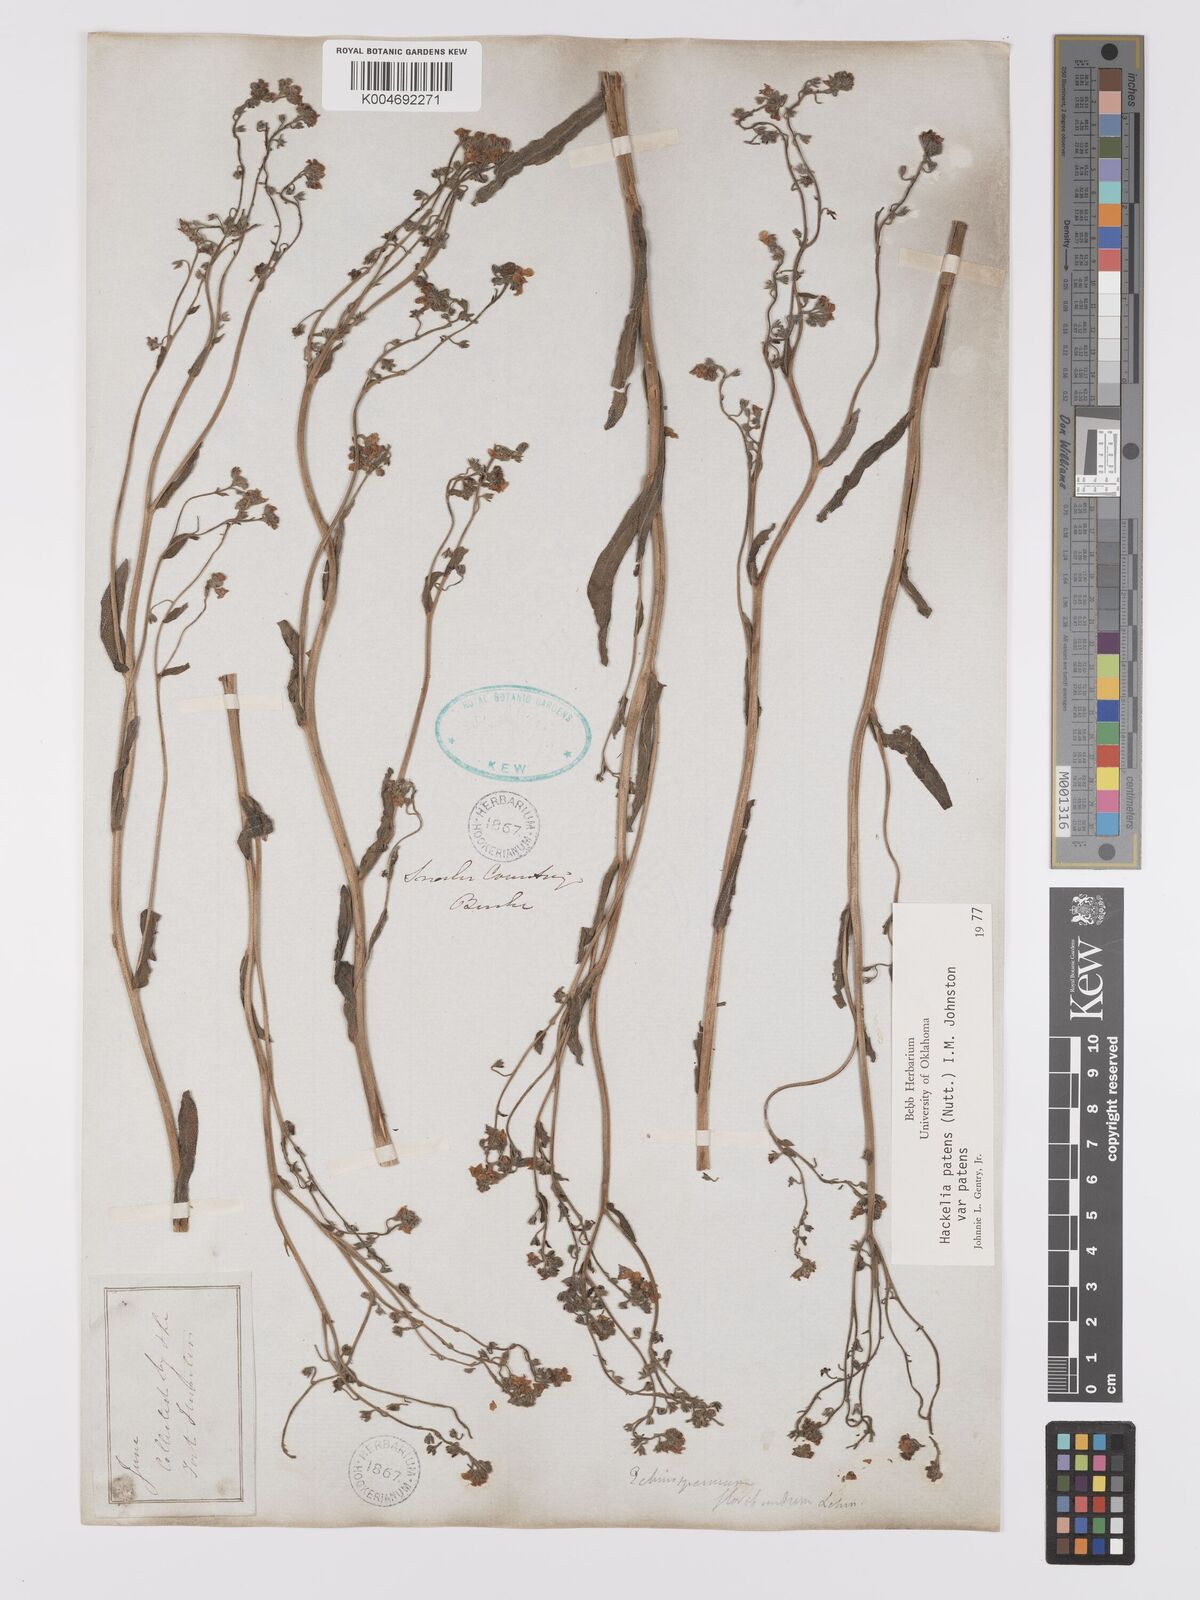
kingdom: Plantae
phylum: Tracheophyta
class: Magnoliopsida
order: Boraginales
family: Boraginaceae
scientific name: Boraginaceae
